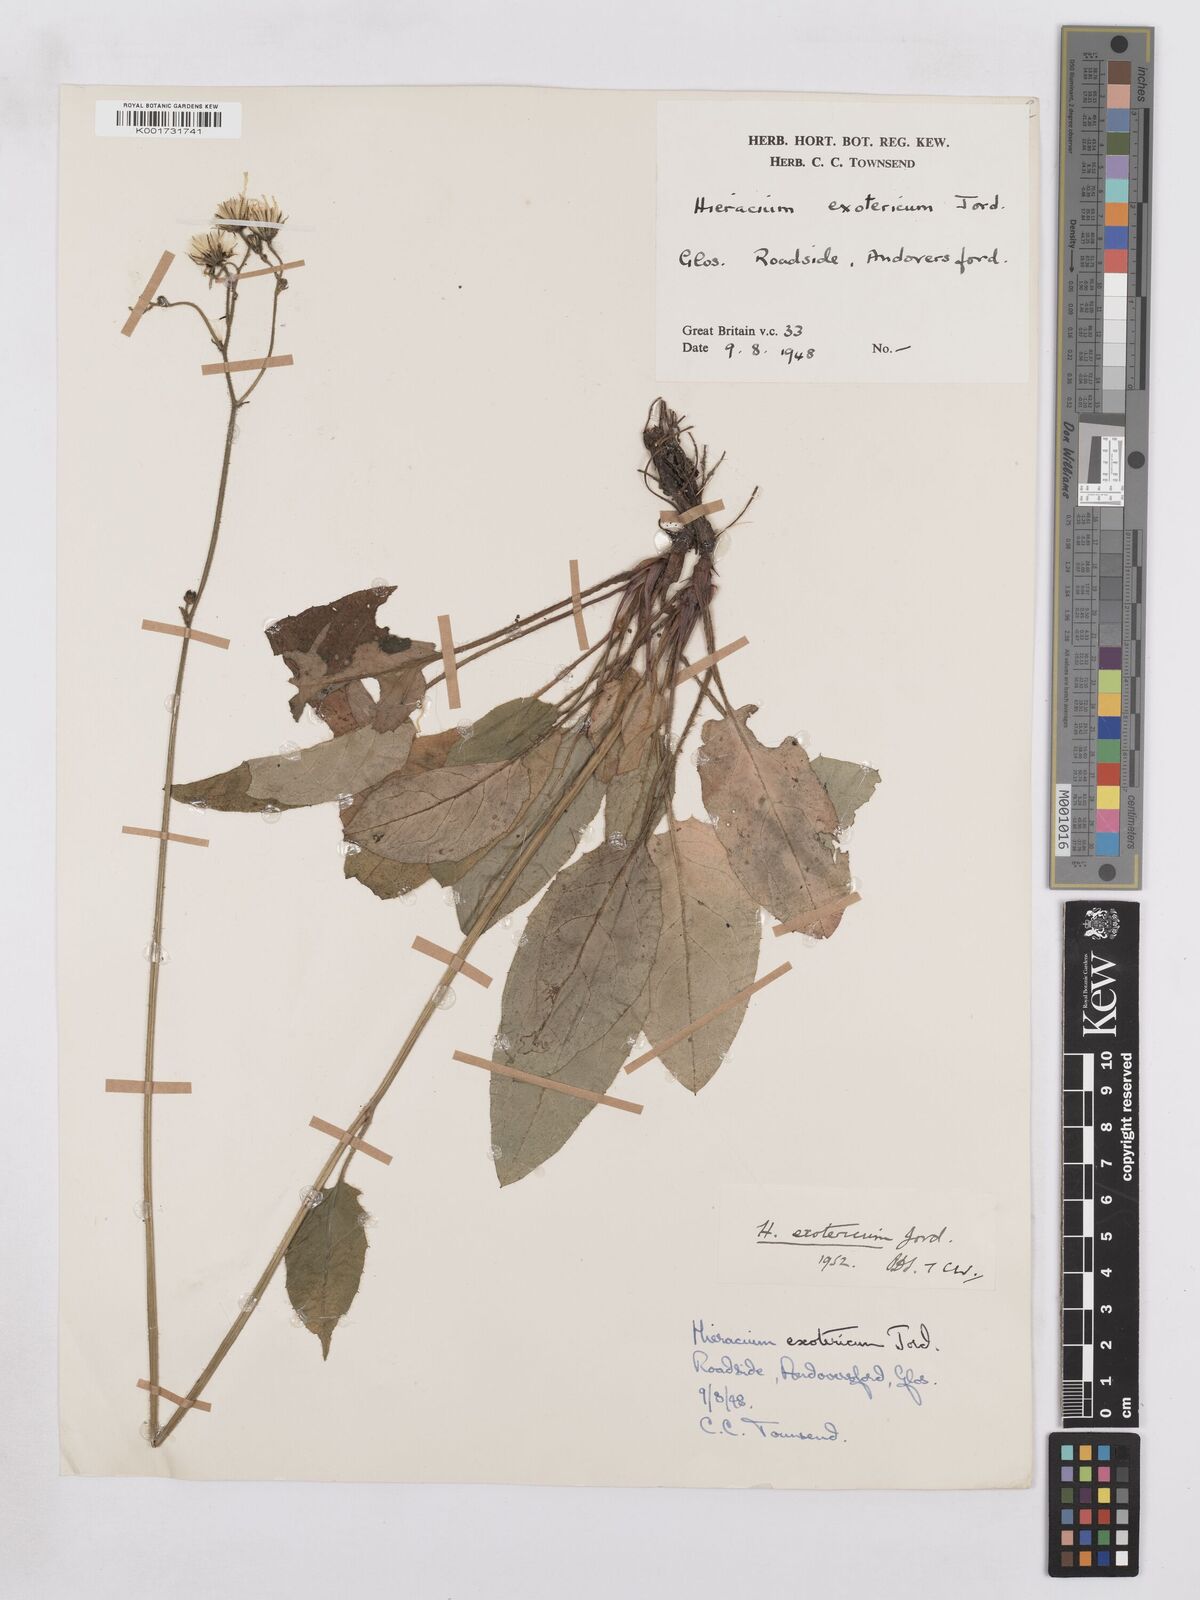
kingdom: Plantae
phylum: Tracheophyta
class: Magnoliopsida
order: Asterales
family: Asteraceae
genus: Hieracium
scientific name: Hieracium murorum
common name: Wall hawkweed
